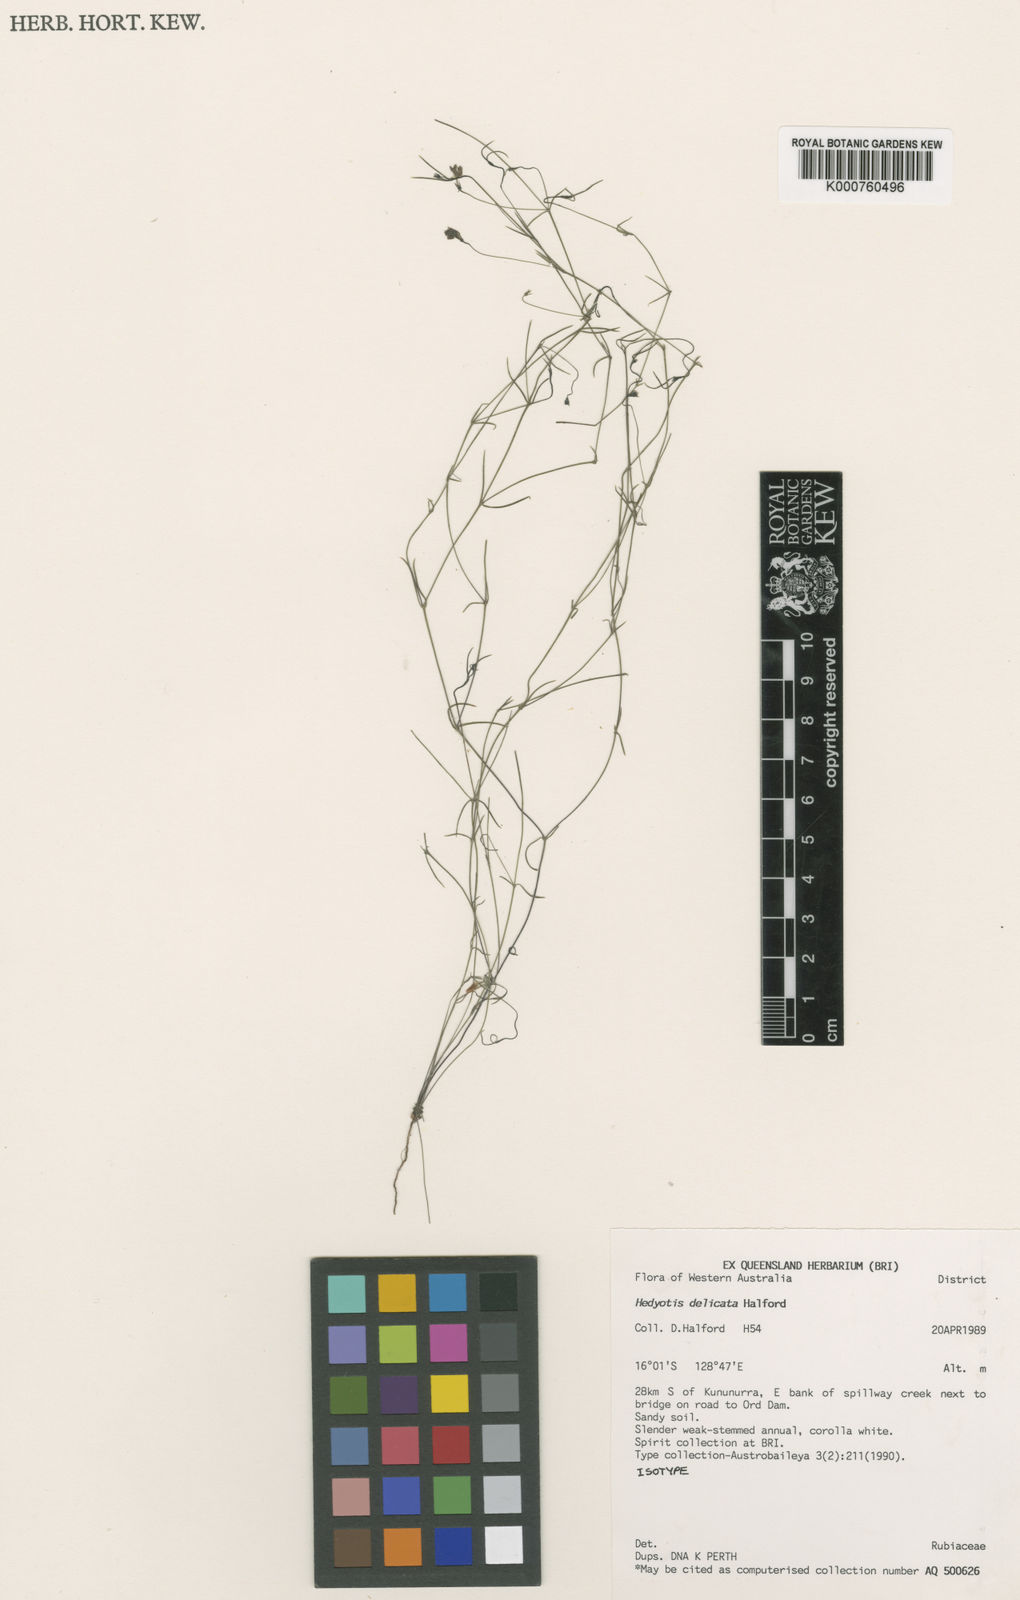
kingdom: Plantae
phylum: Tracheophyta
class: Magnoliopsida
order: Gentianales
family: Rubiaceae
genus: Scleromitrion
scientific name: Scleromitrion delicatum
